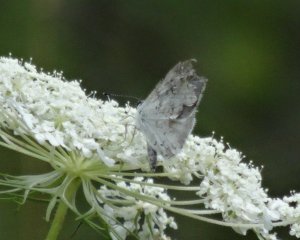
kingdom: Animalia
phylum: Arthropoda
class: Insecta
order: Lepidoptera
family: Lycaenidae
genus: Cyaniris
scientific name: Cyaniris neglecta
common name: Summer Azure
